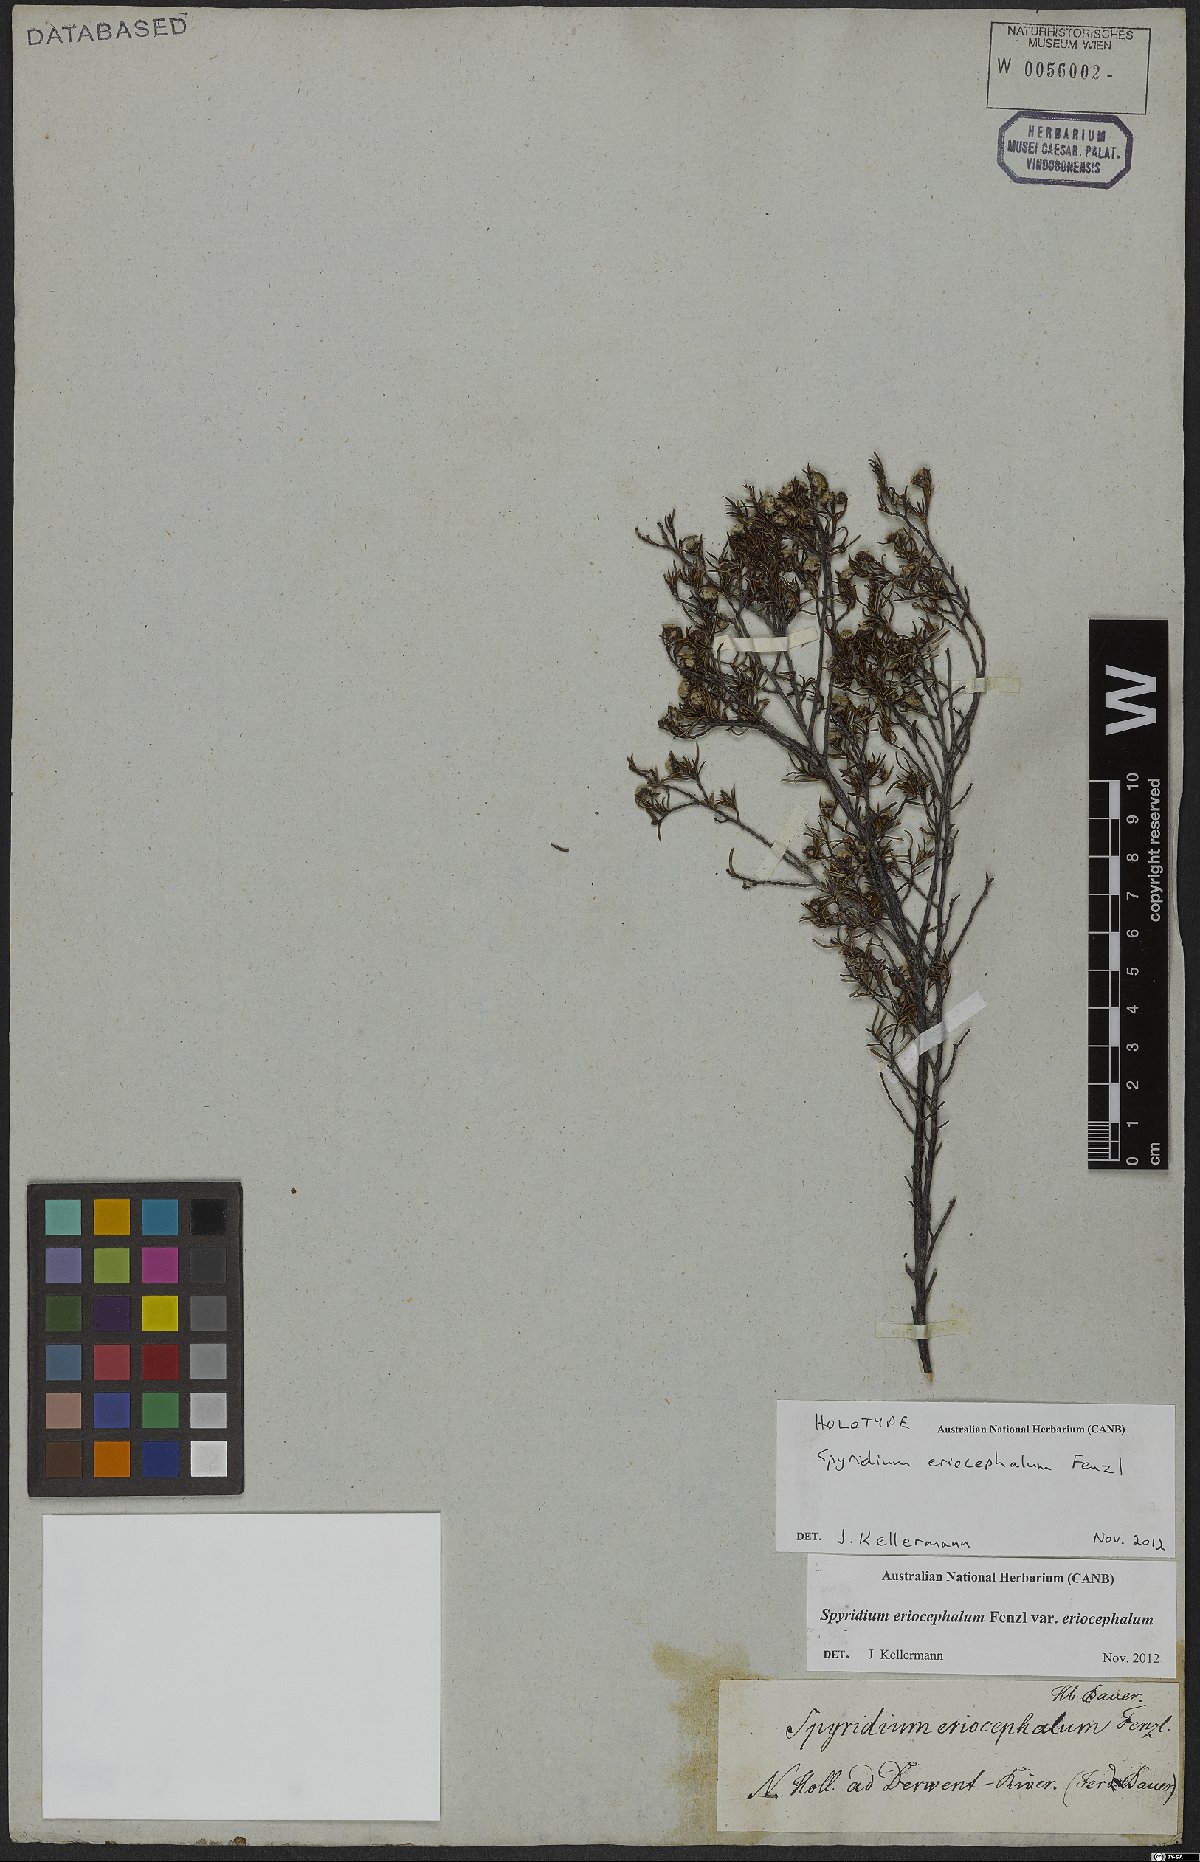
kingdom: Plantae
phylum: Tracheophyta
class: Magnoliopsida
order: Rosales
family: Rhamnaceae
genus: Spyridium
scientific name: Spyridium eriocephalum
